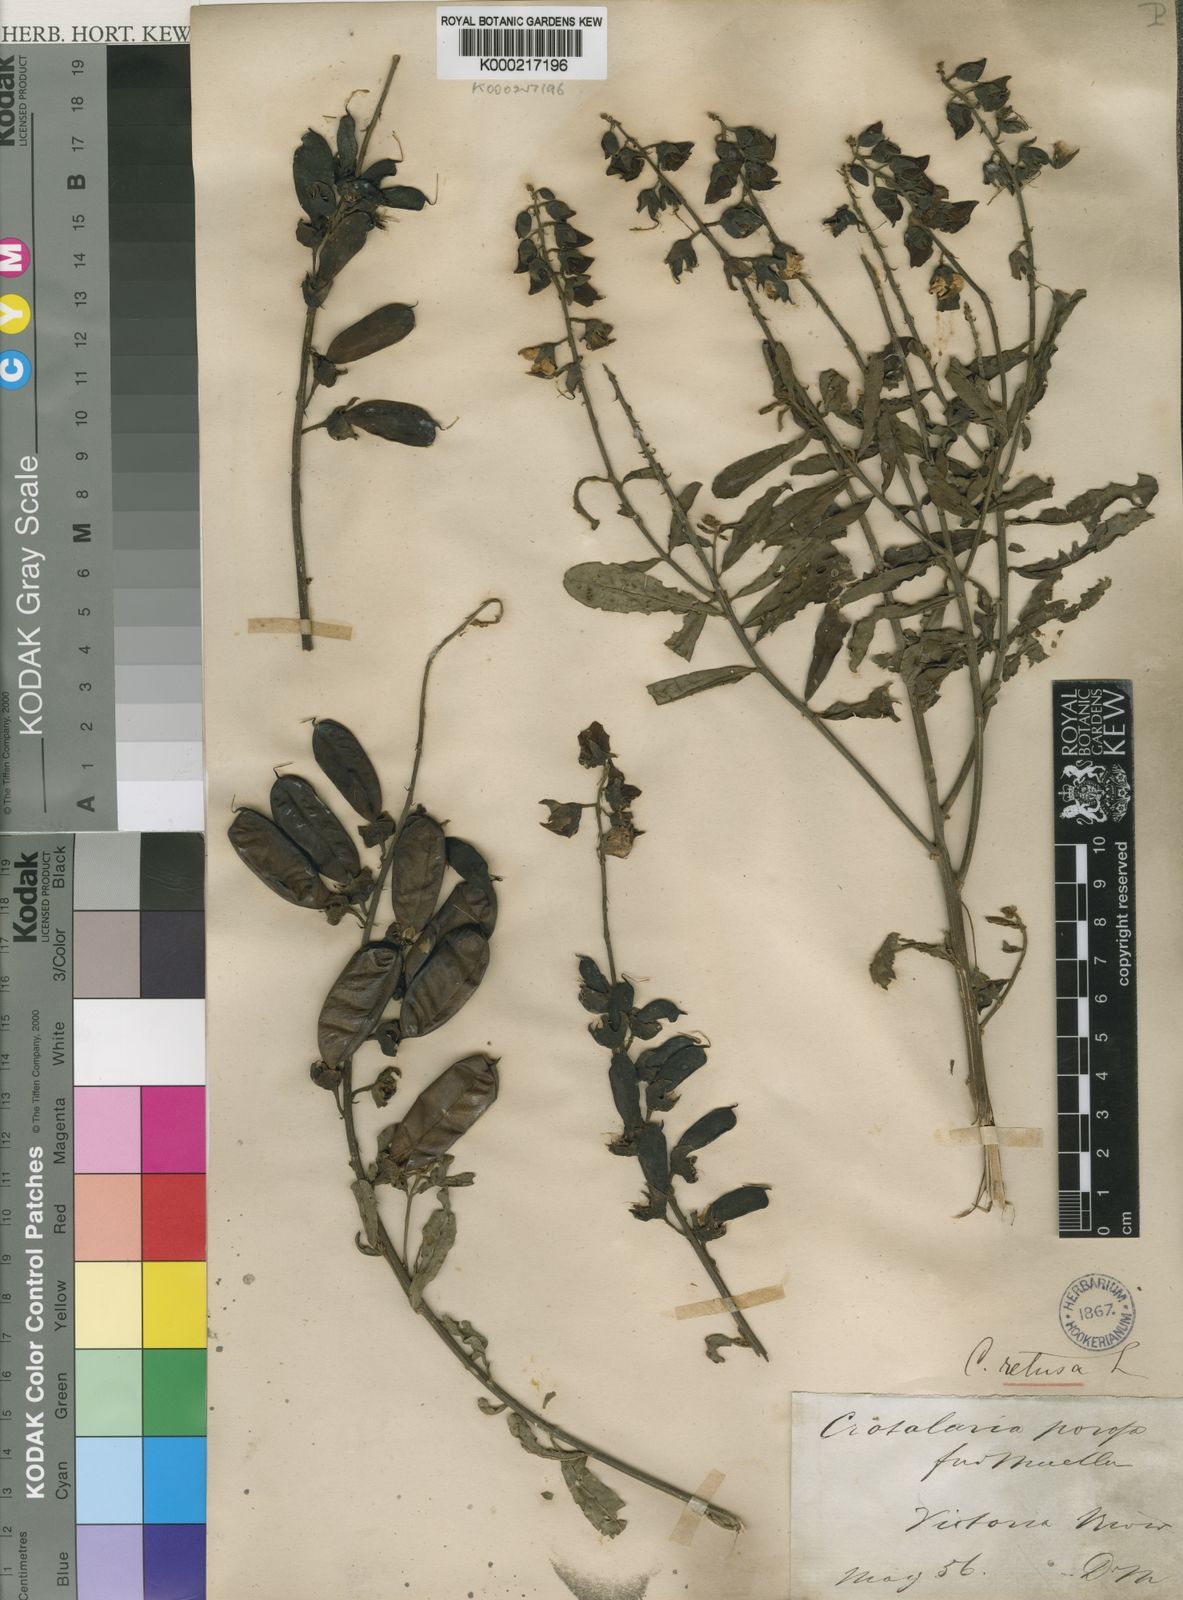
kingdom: Plantae
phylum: Tracheophyta
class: Magnoliopsida
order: Fabales
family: Fabaceae
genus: Crotalaria
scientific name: Crotalaria retusa
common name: Rattleweed
